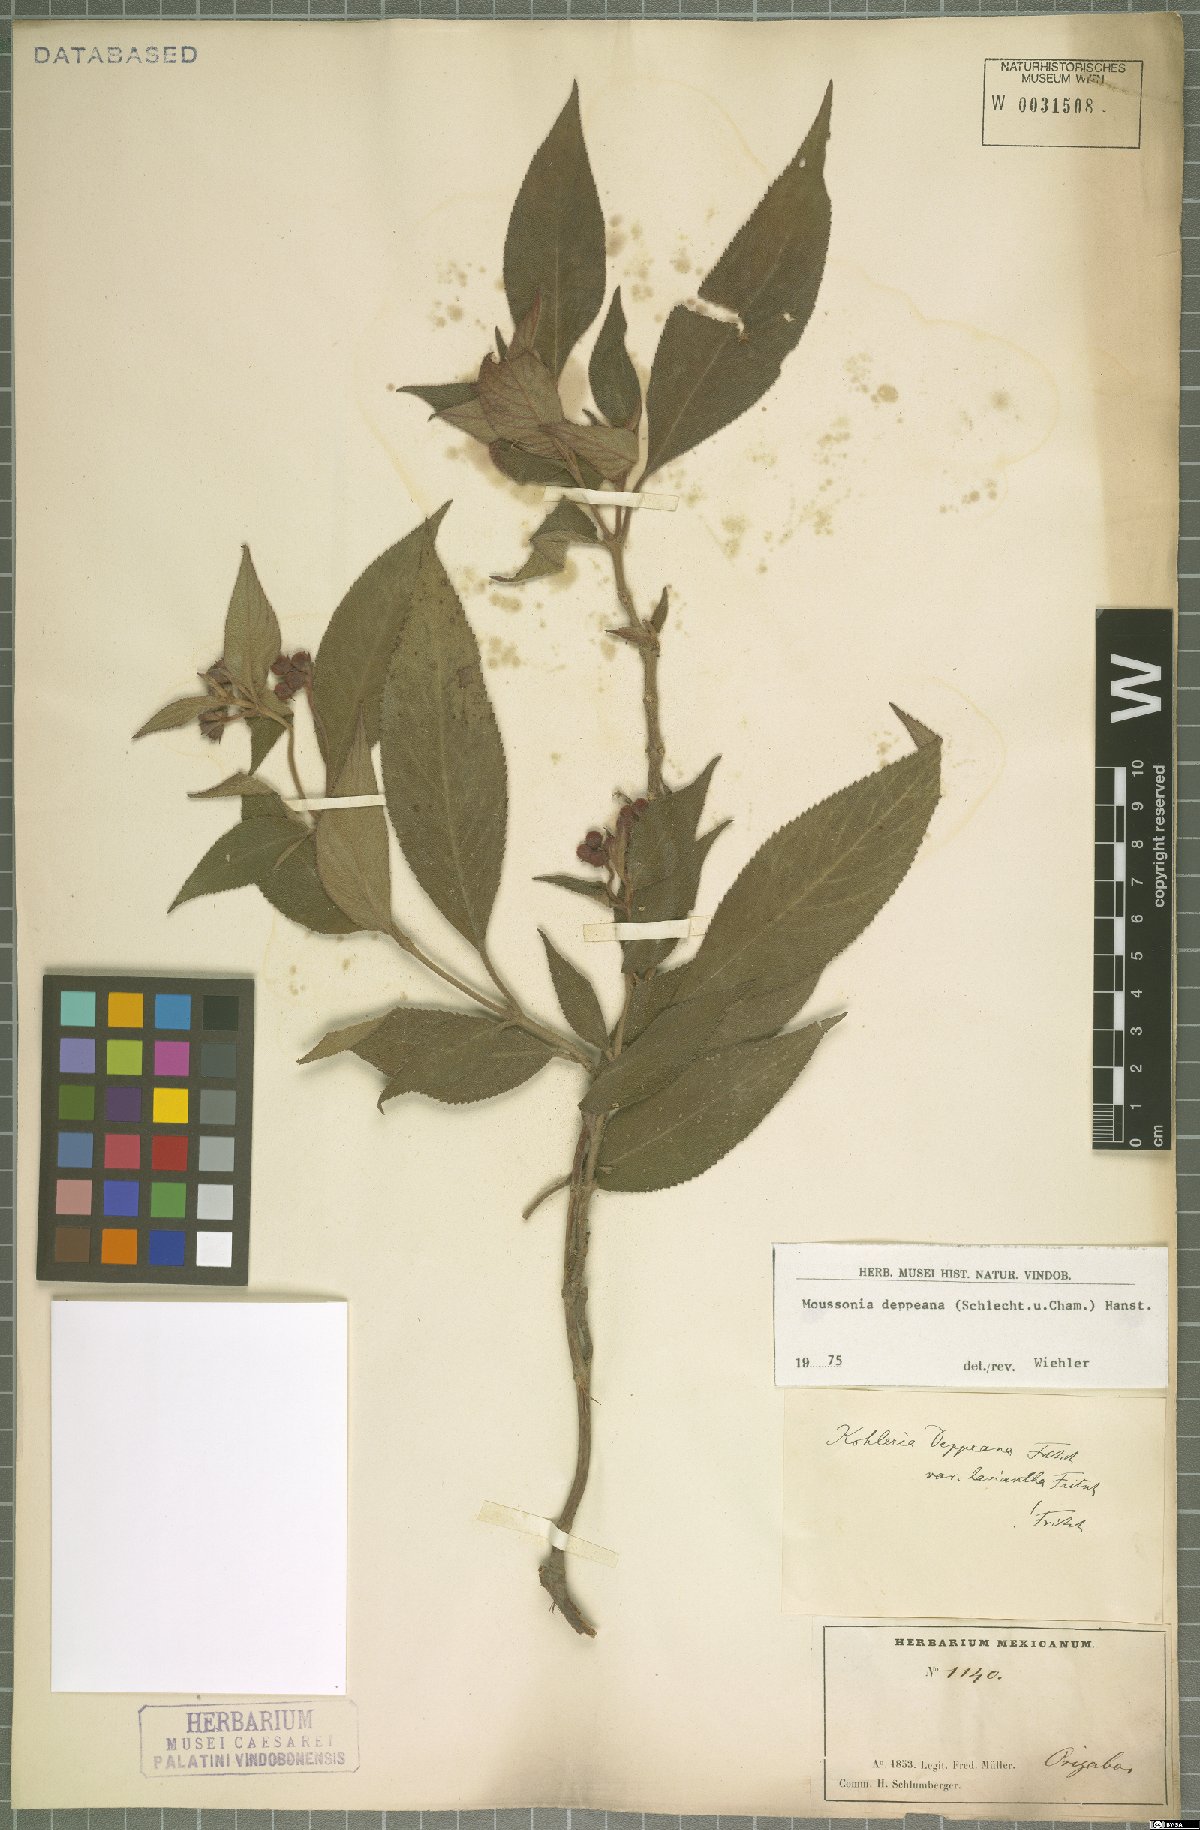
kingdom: Plantae
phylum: Tracheophyta
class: Magnoliopsida
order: Lamiales
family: Gesneriaceae
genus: Moussonia
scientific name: Moussonia deppeana
